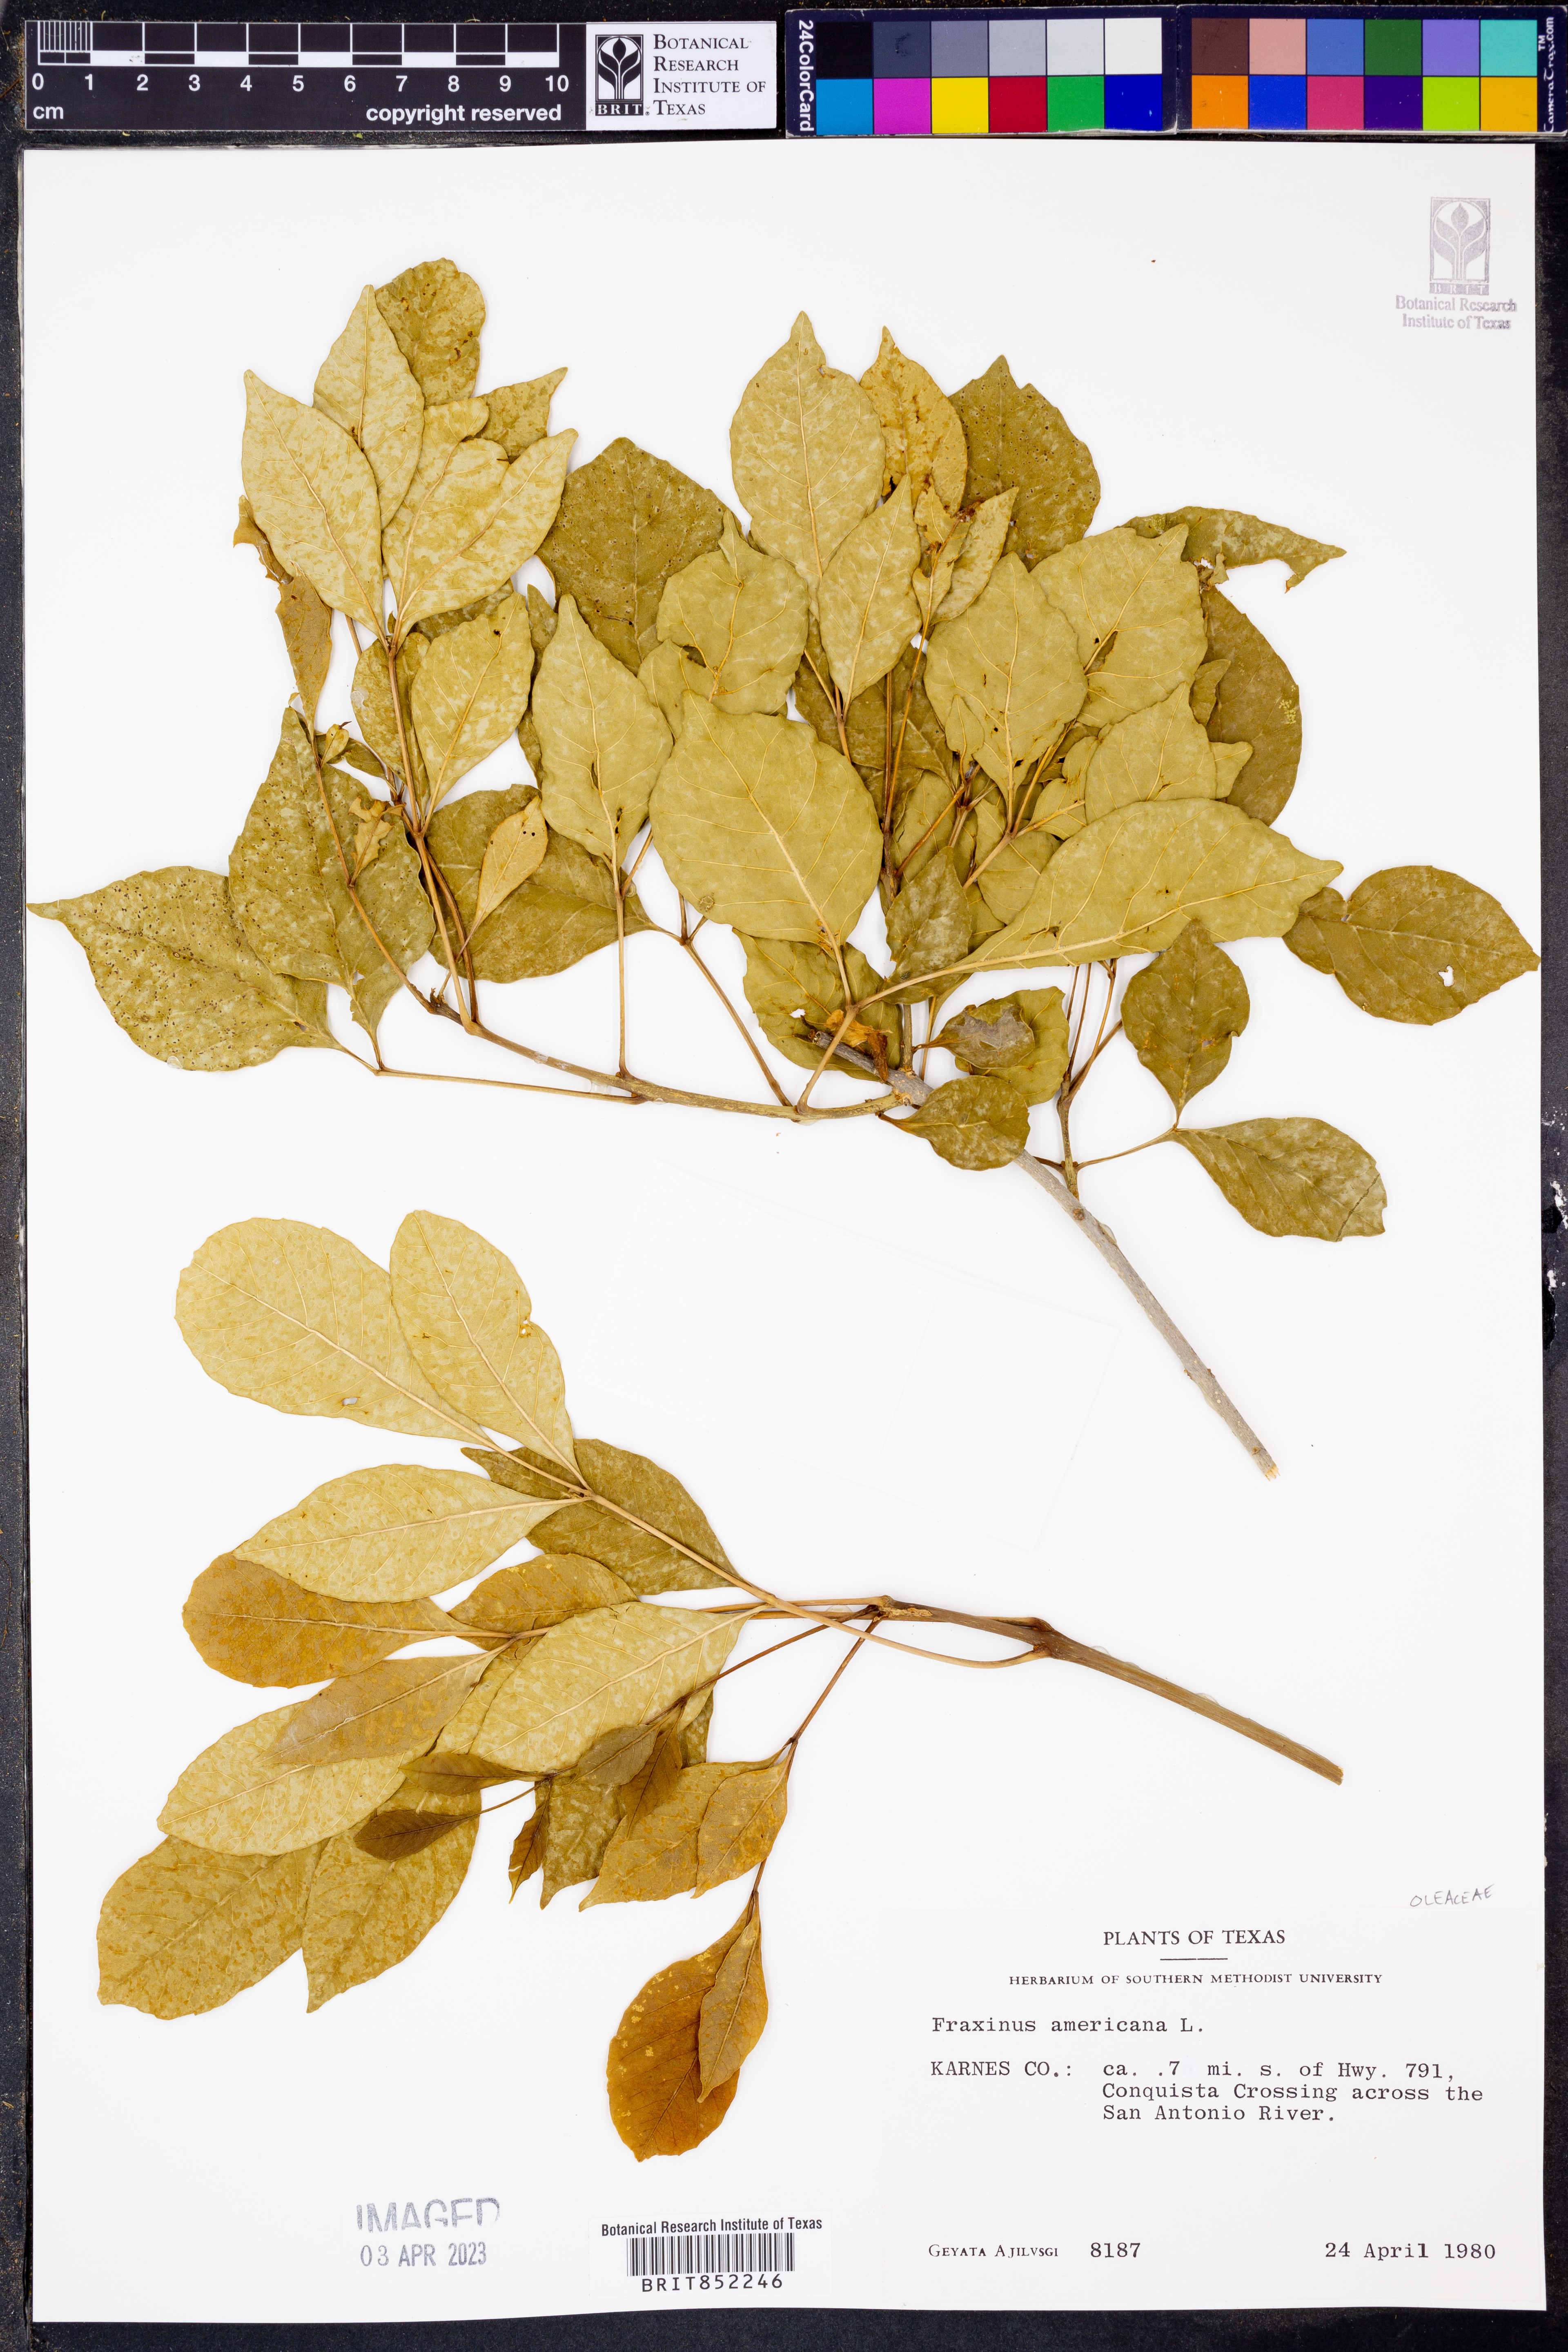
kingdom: Plantae
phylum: Tracheophyta
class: Magnoliopsida
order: Lamiales
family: Oleaceae
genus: Fraxinus
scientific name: Fraxinus americana
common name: White ash
